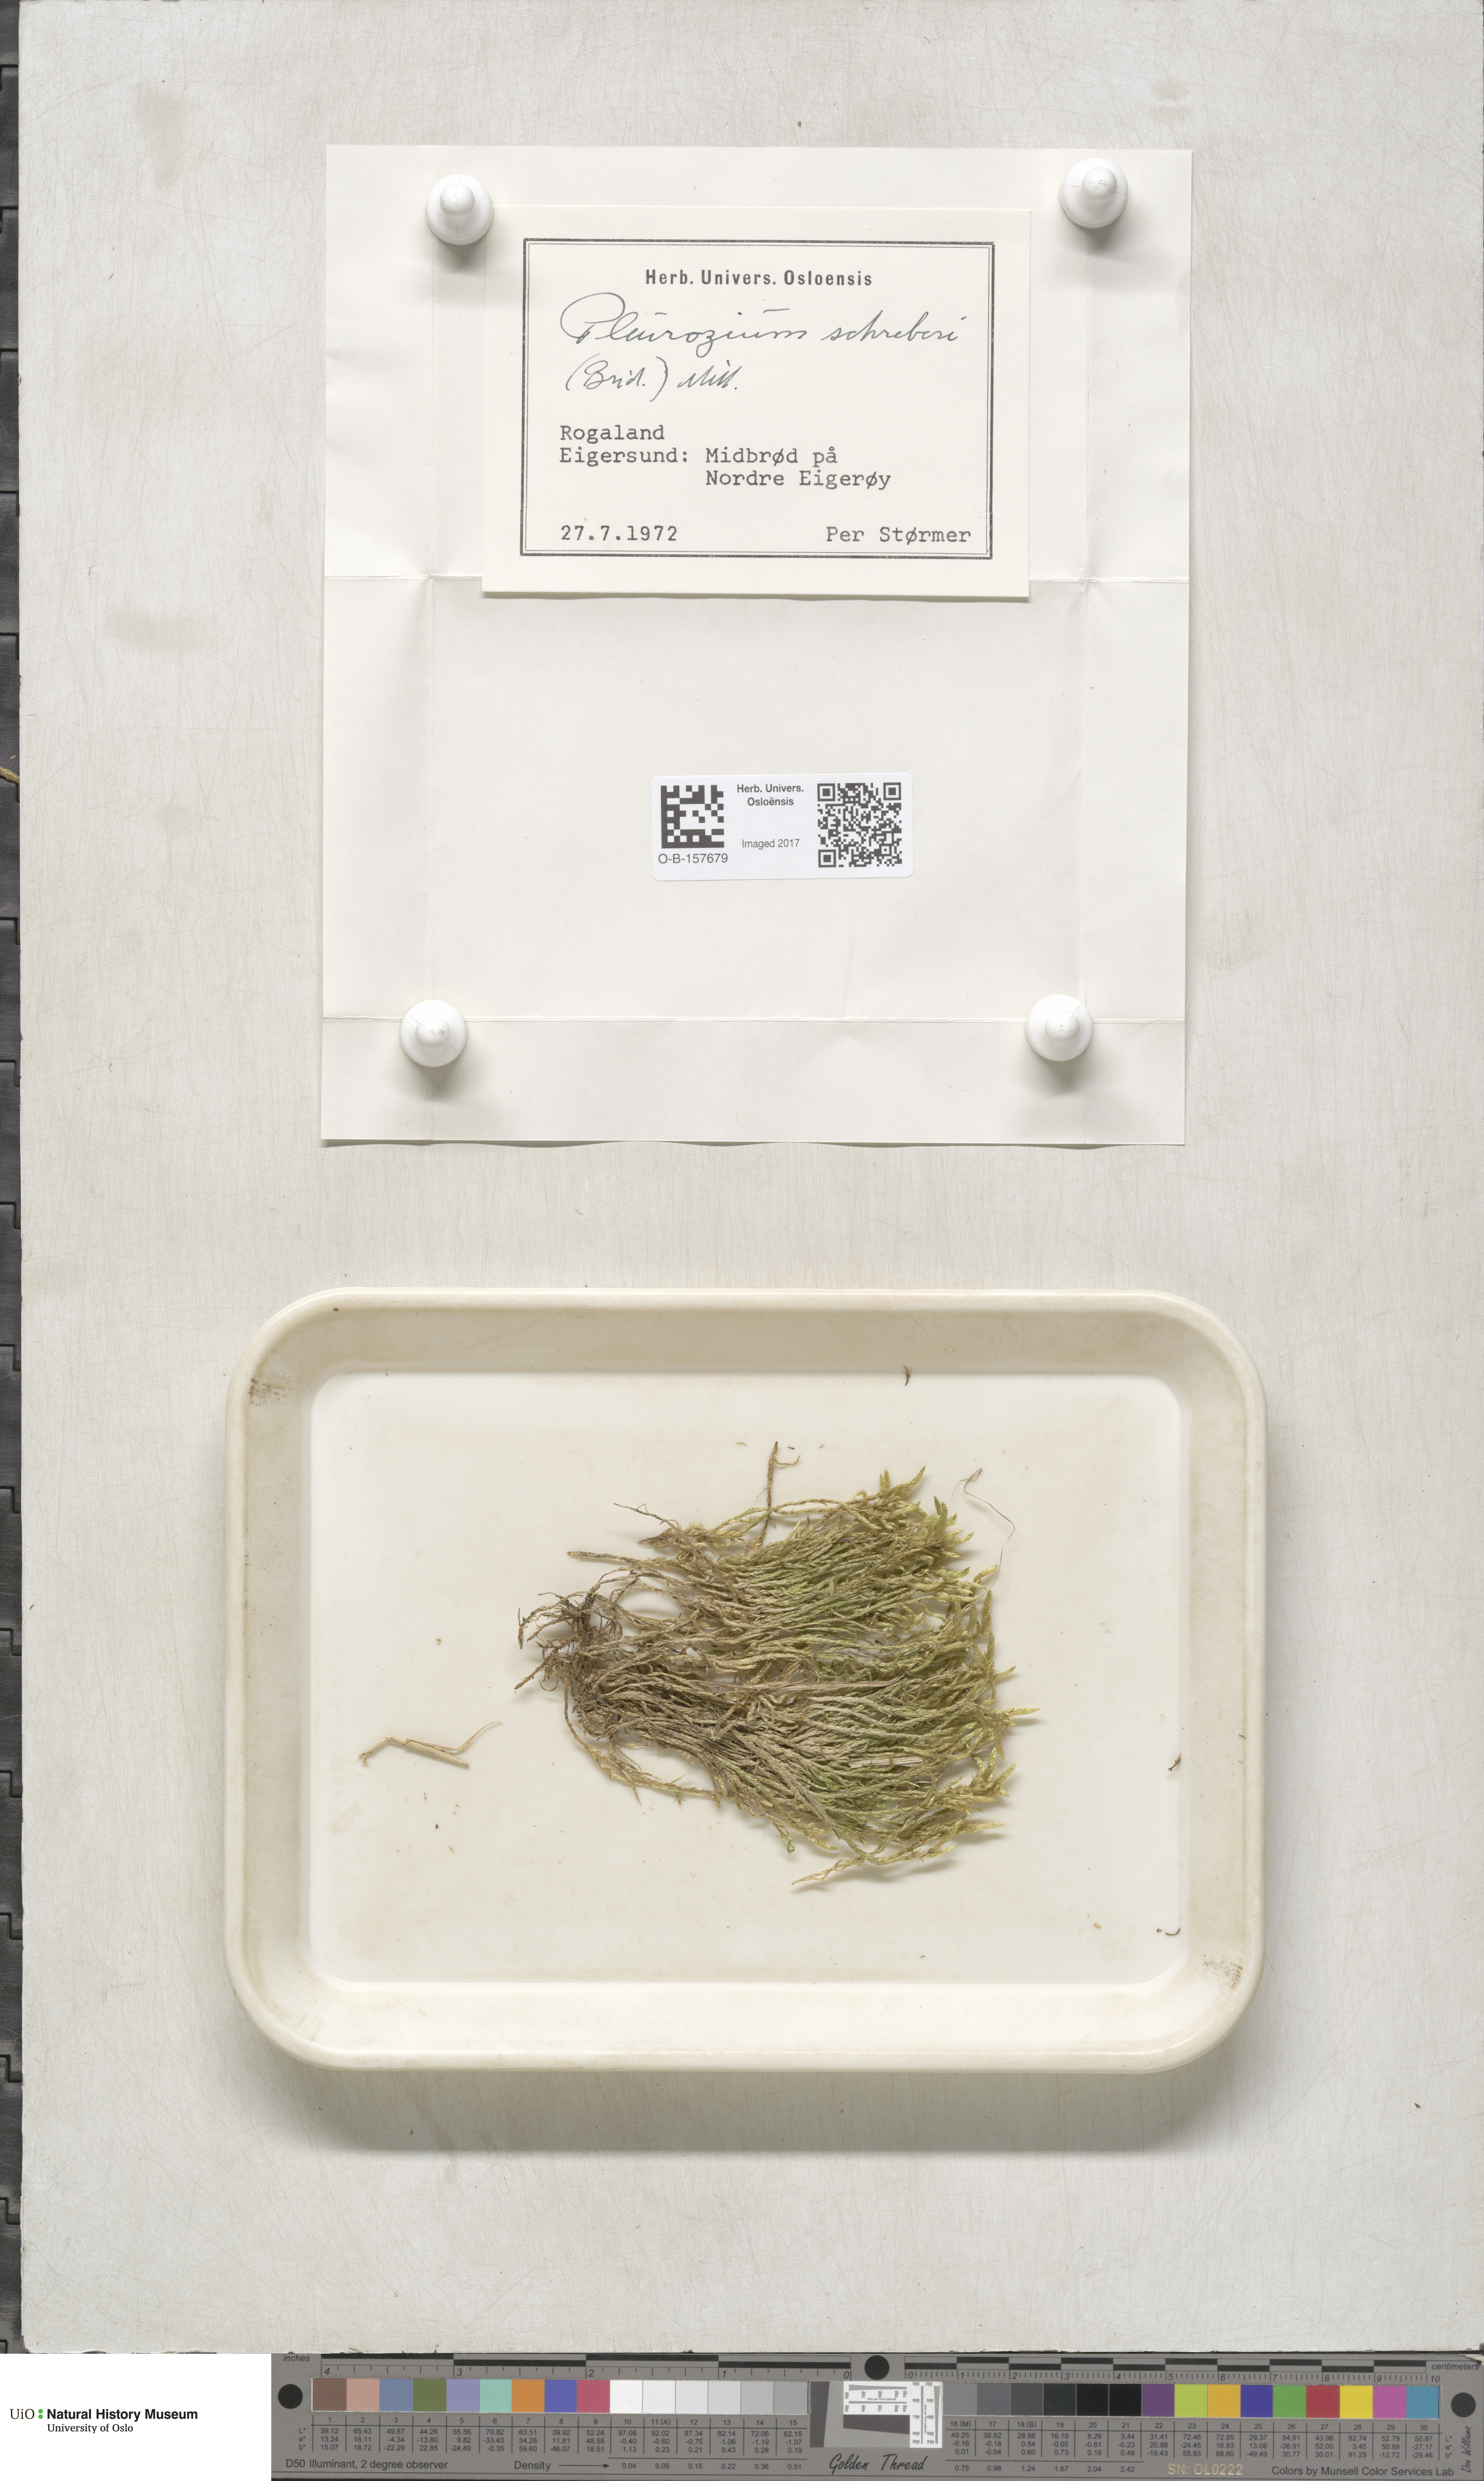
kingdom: Plantae
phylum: Bryophyta
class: Bryopsida
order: Hypnales
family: Hylocomiaceae
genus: Pleurozium
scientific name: Pleurozium schreberi
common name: Red-stemmed feather moss
